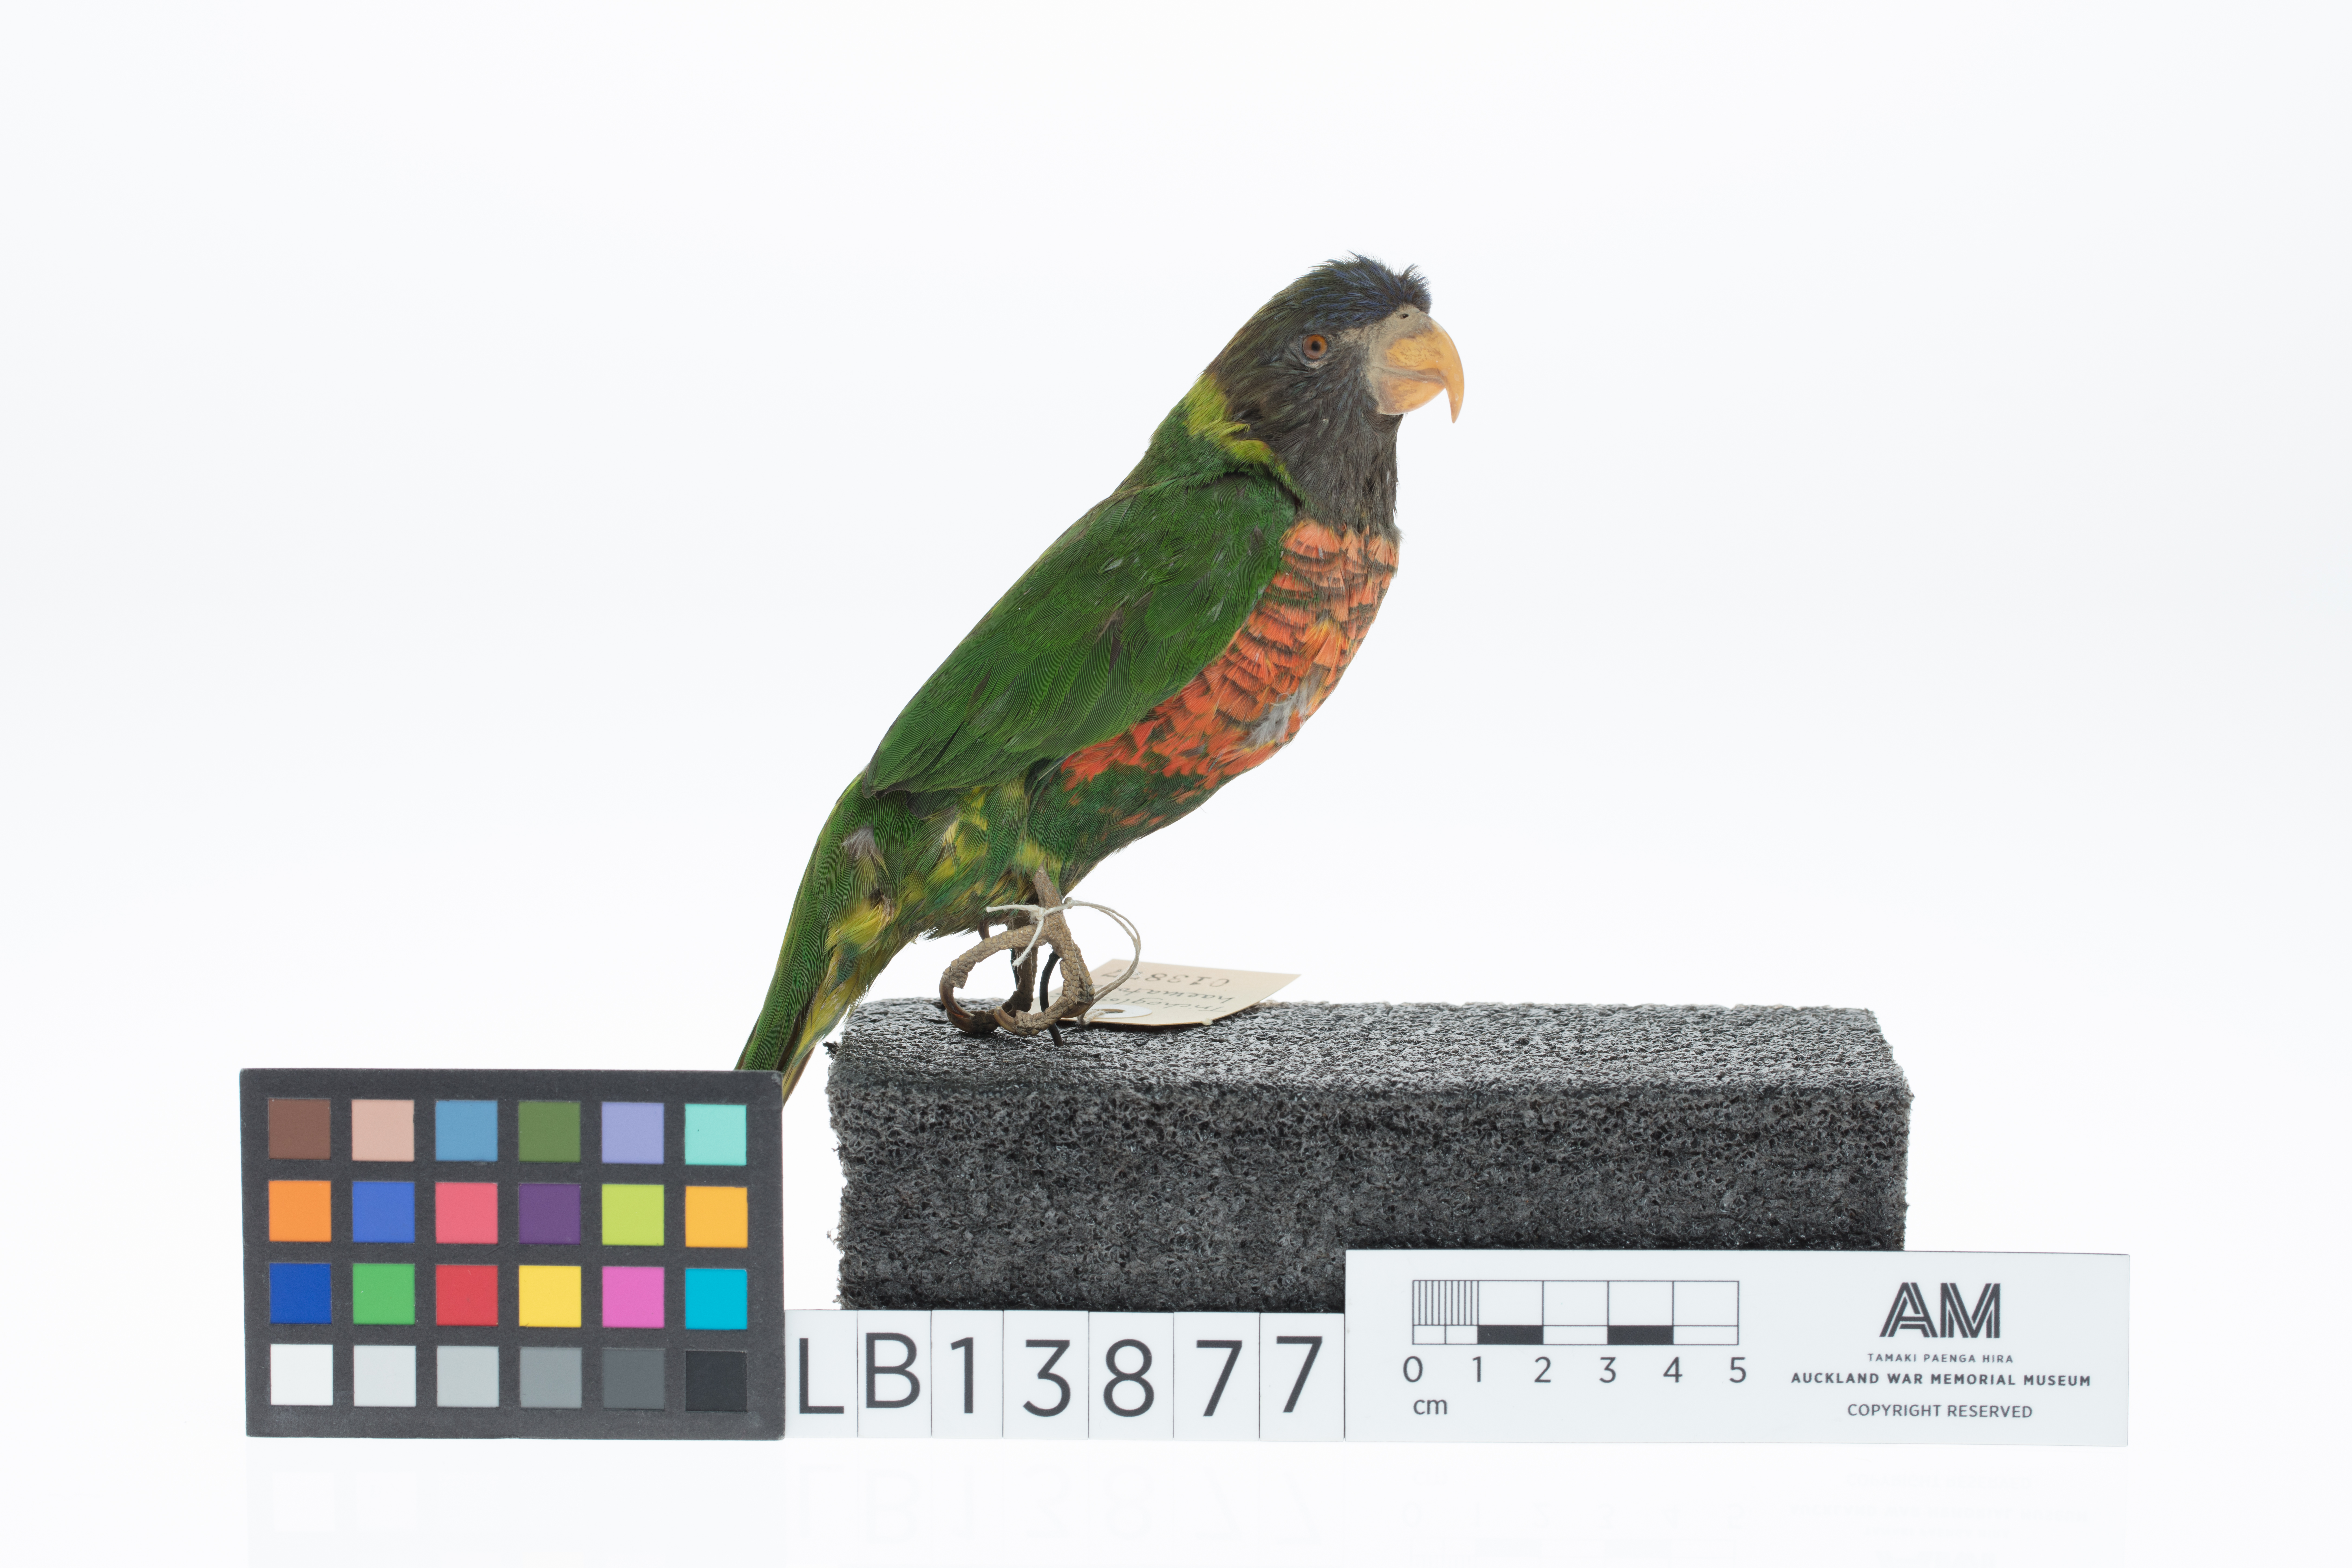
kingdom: Animalia
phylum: Chordata
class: Aves
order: Psittaciformes
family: Psittacidae
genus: Trichoglossus
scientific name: Trichoglossus haematodus
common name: Coconut lorikeet
